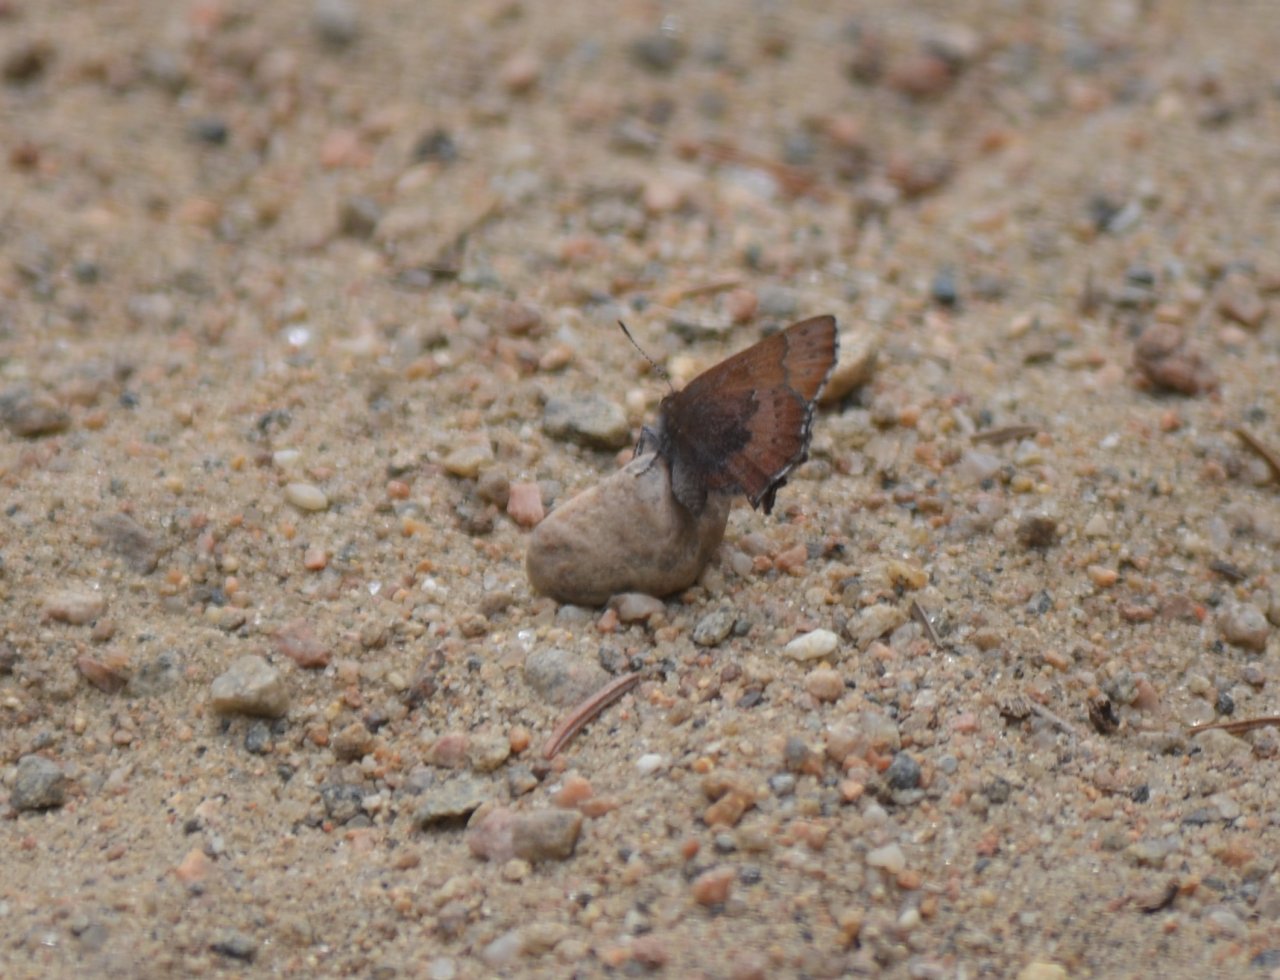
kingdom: Animalia
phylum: Arthropoda
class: Insecta
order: Lepidoptera
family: Lycaenidae
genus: Incisalia
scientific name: Incisalia irioides
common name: Brown Elfin
